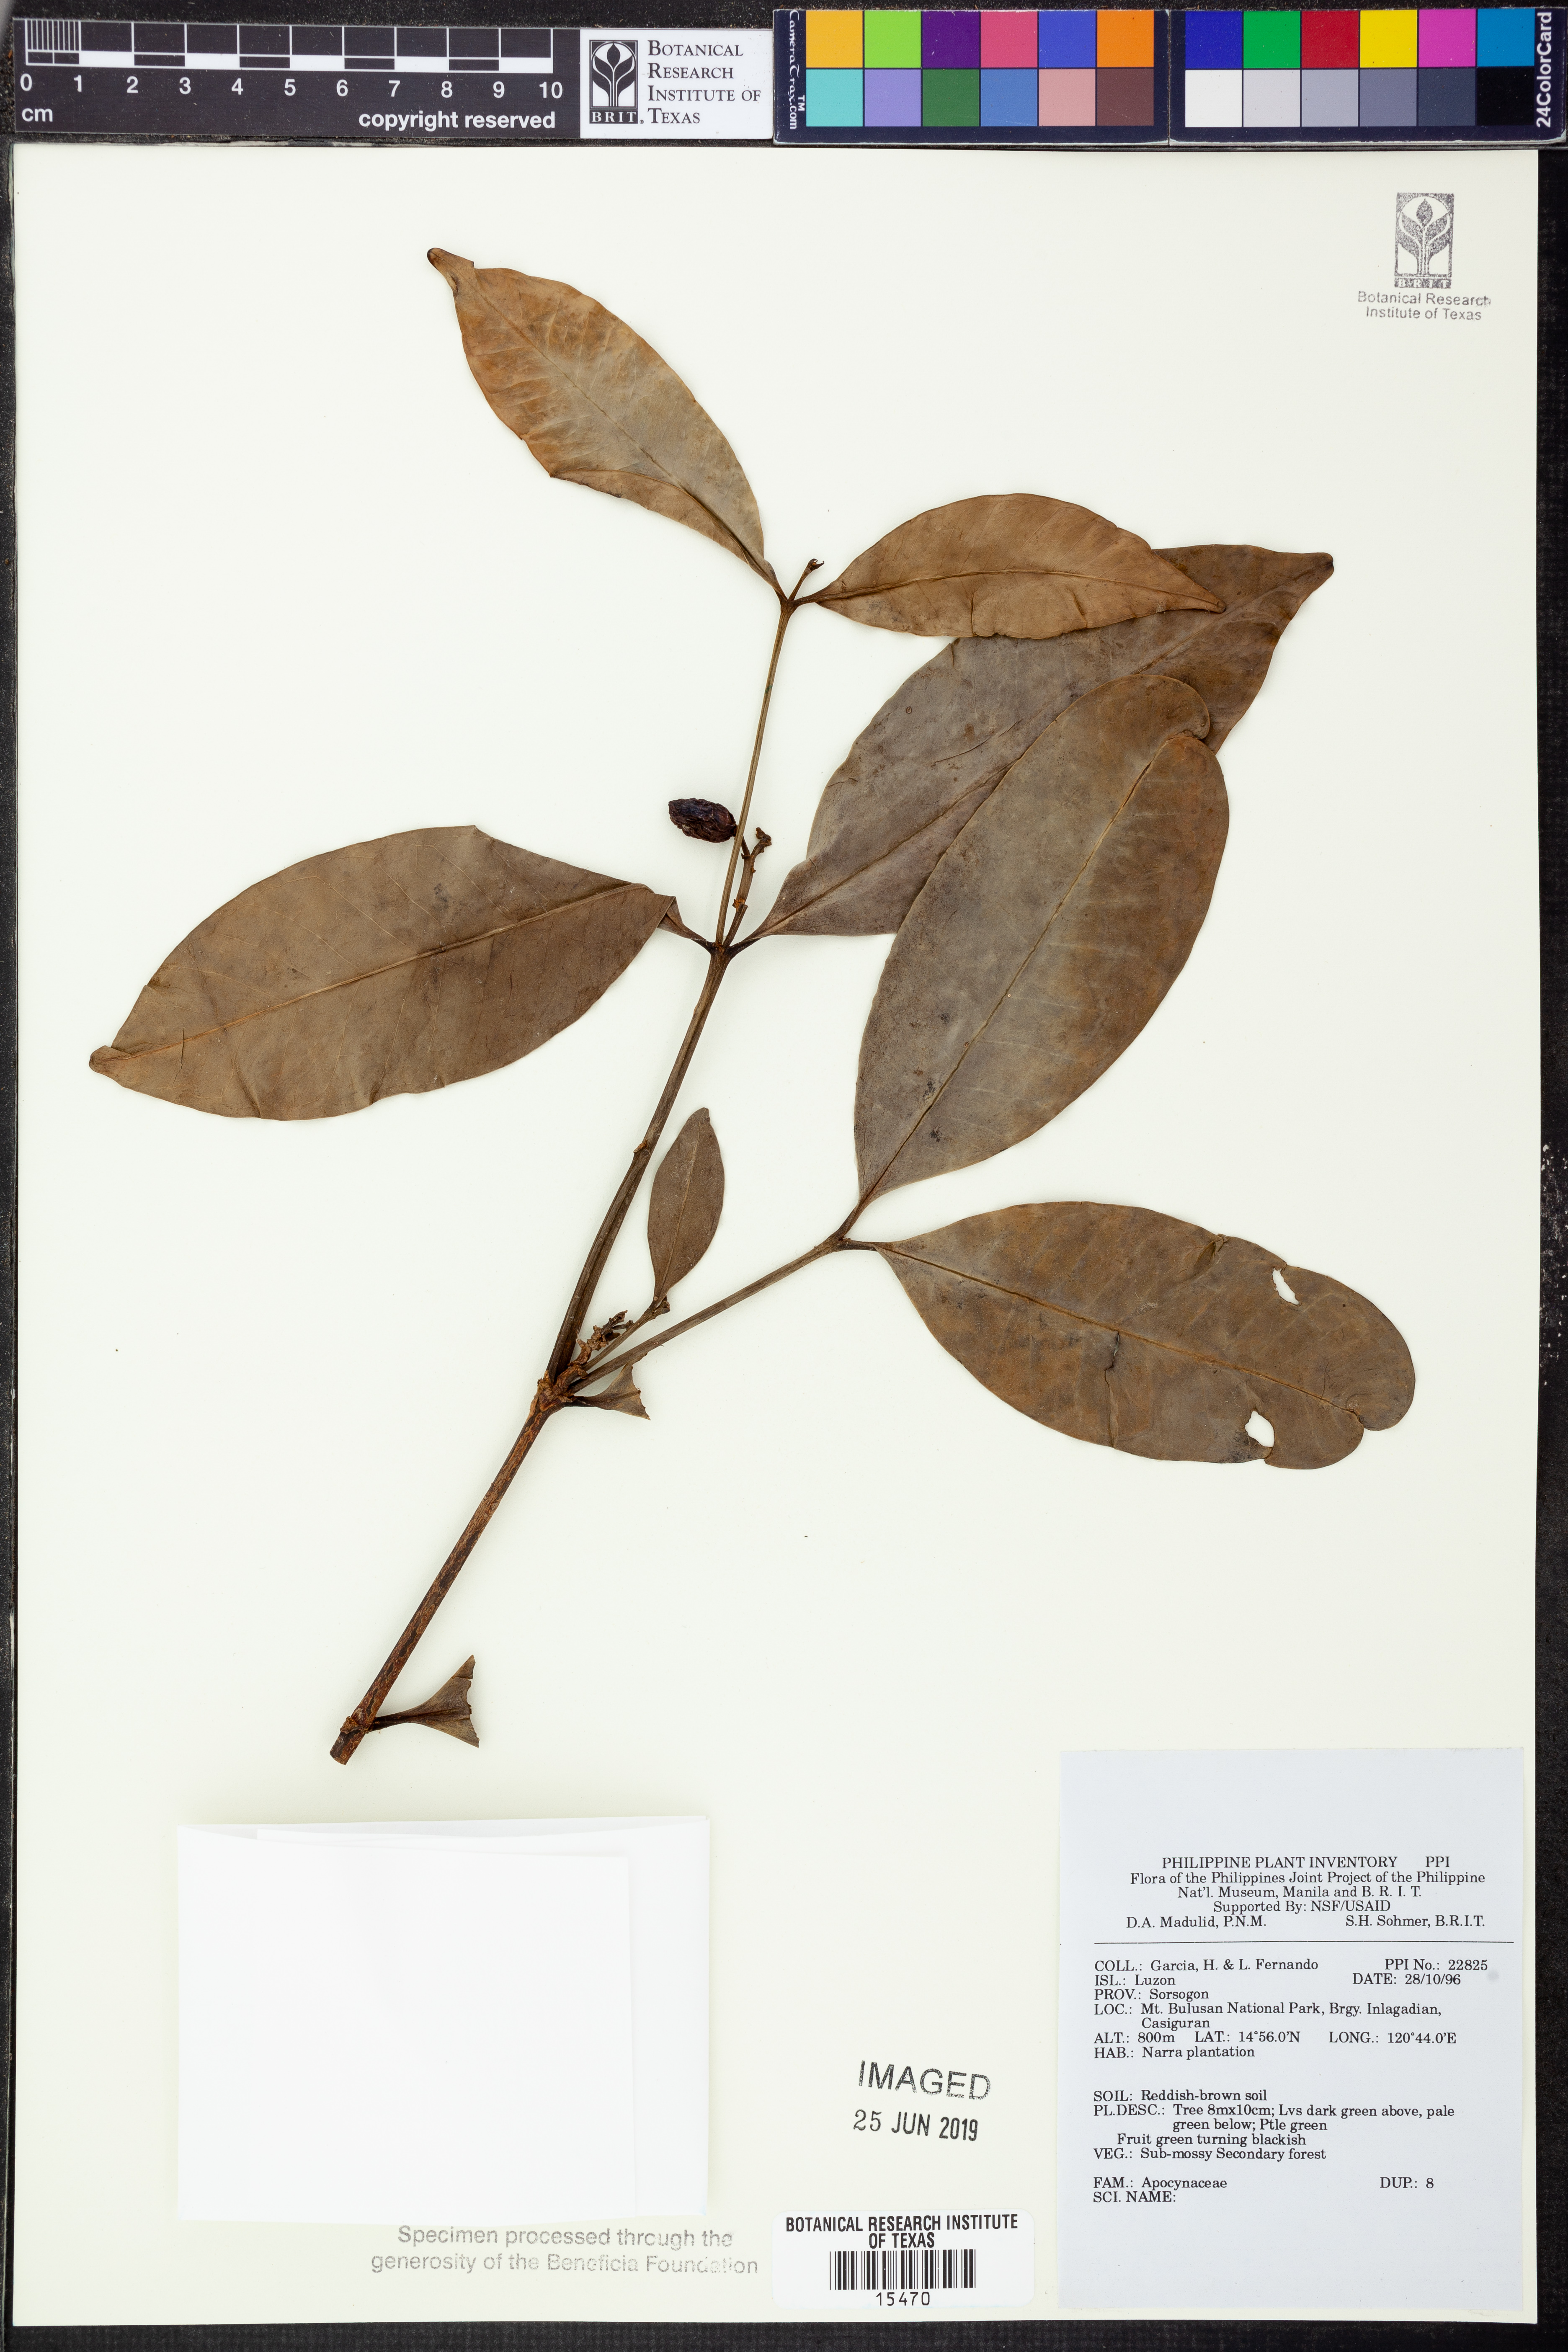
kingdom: Plantae
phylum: Tracheophyta
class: Magnoliopsida
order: Gentianales
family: Apocynaceae
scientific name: Apocynaceae
